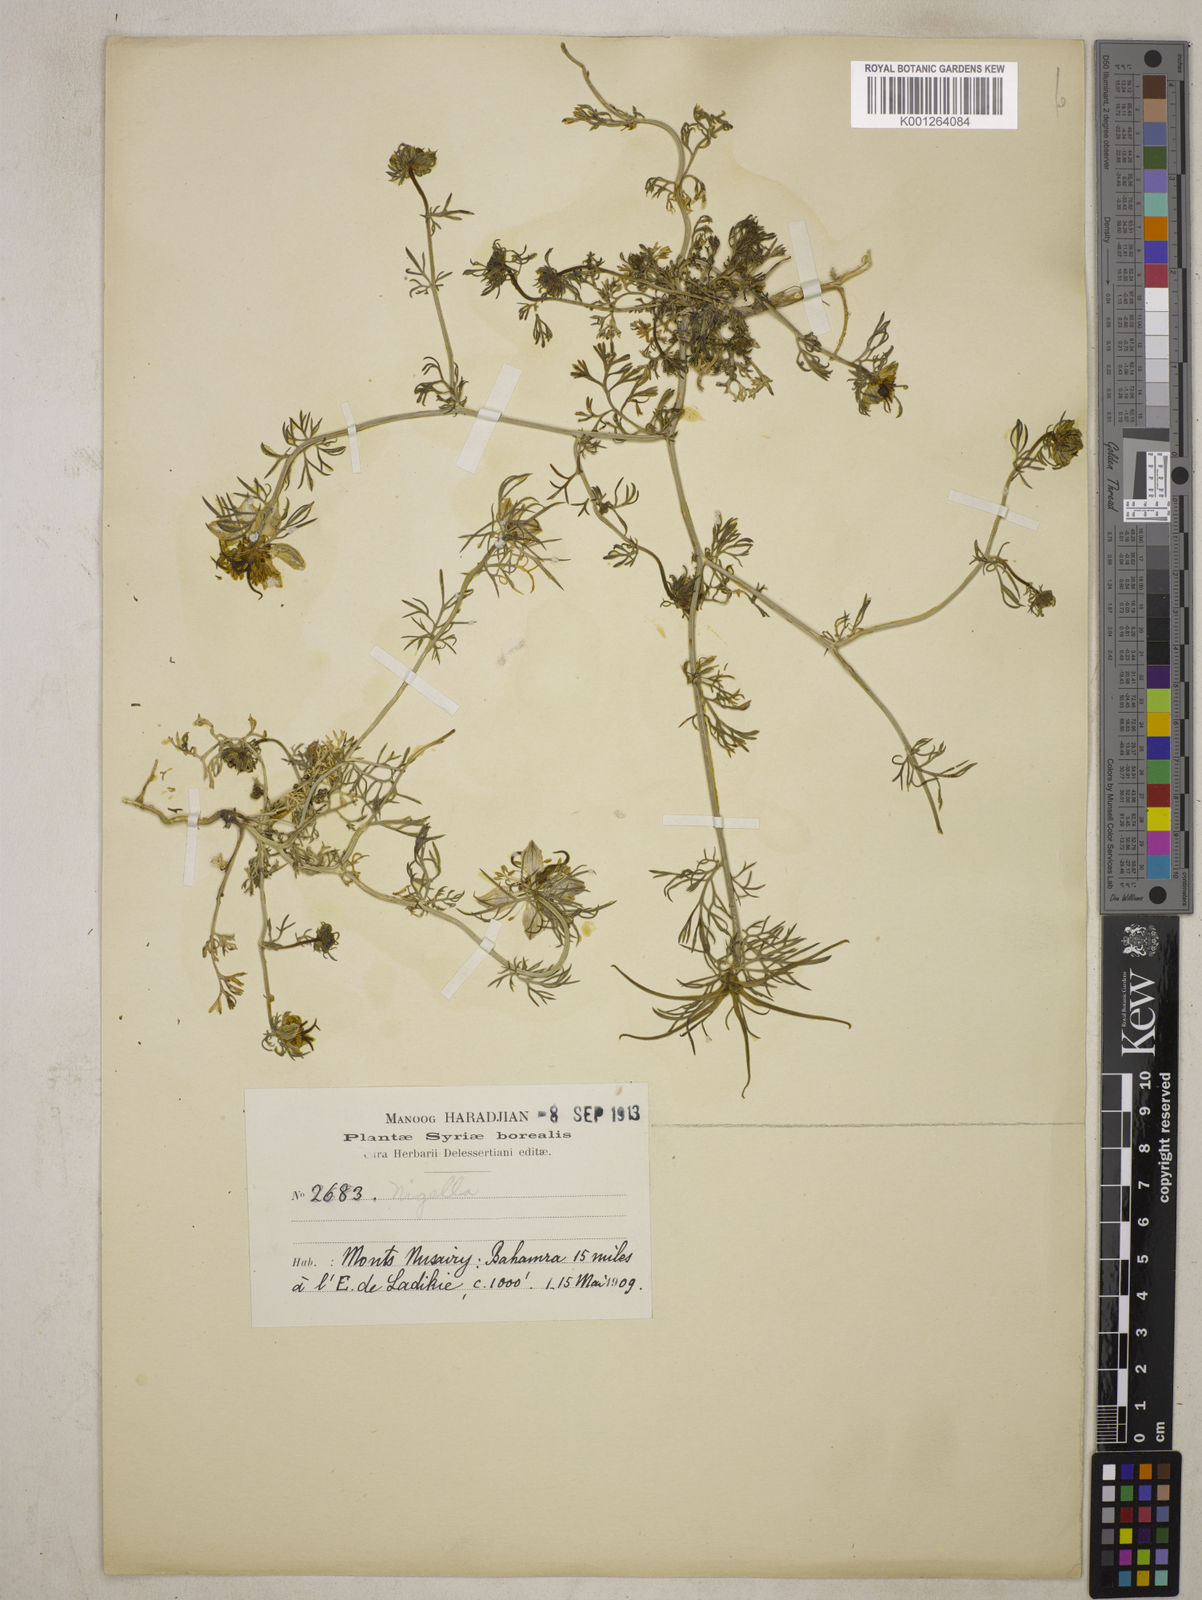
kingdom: Plantae
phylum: Tracheophyta
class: Magnoliopsida
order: Ranunculales
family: Ranunculaceae
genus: Nigella
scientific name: Nigella stellaris
